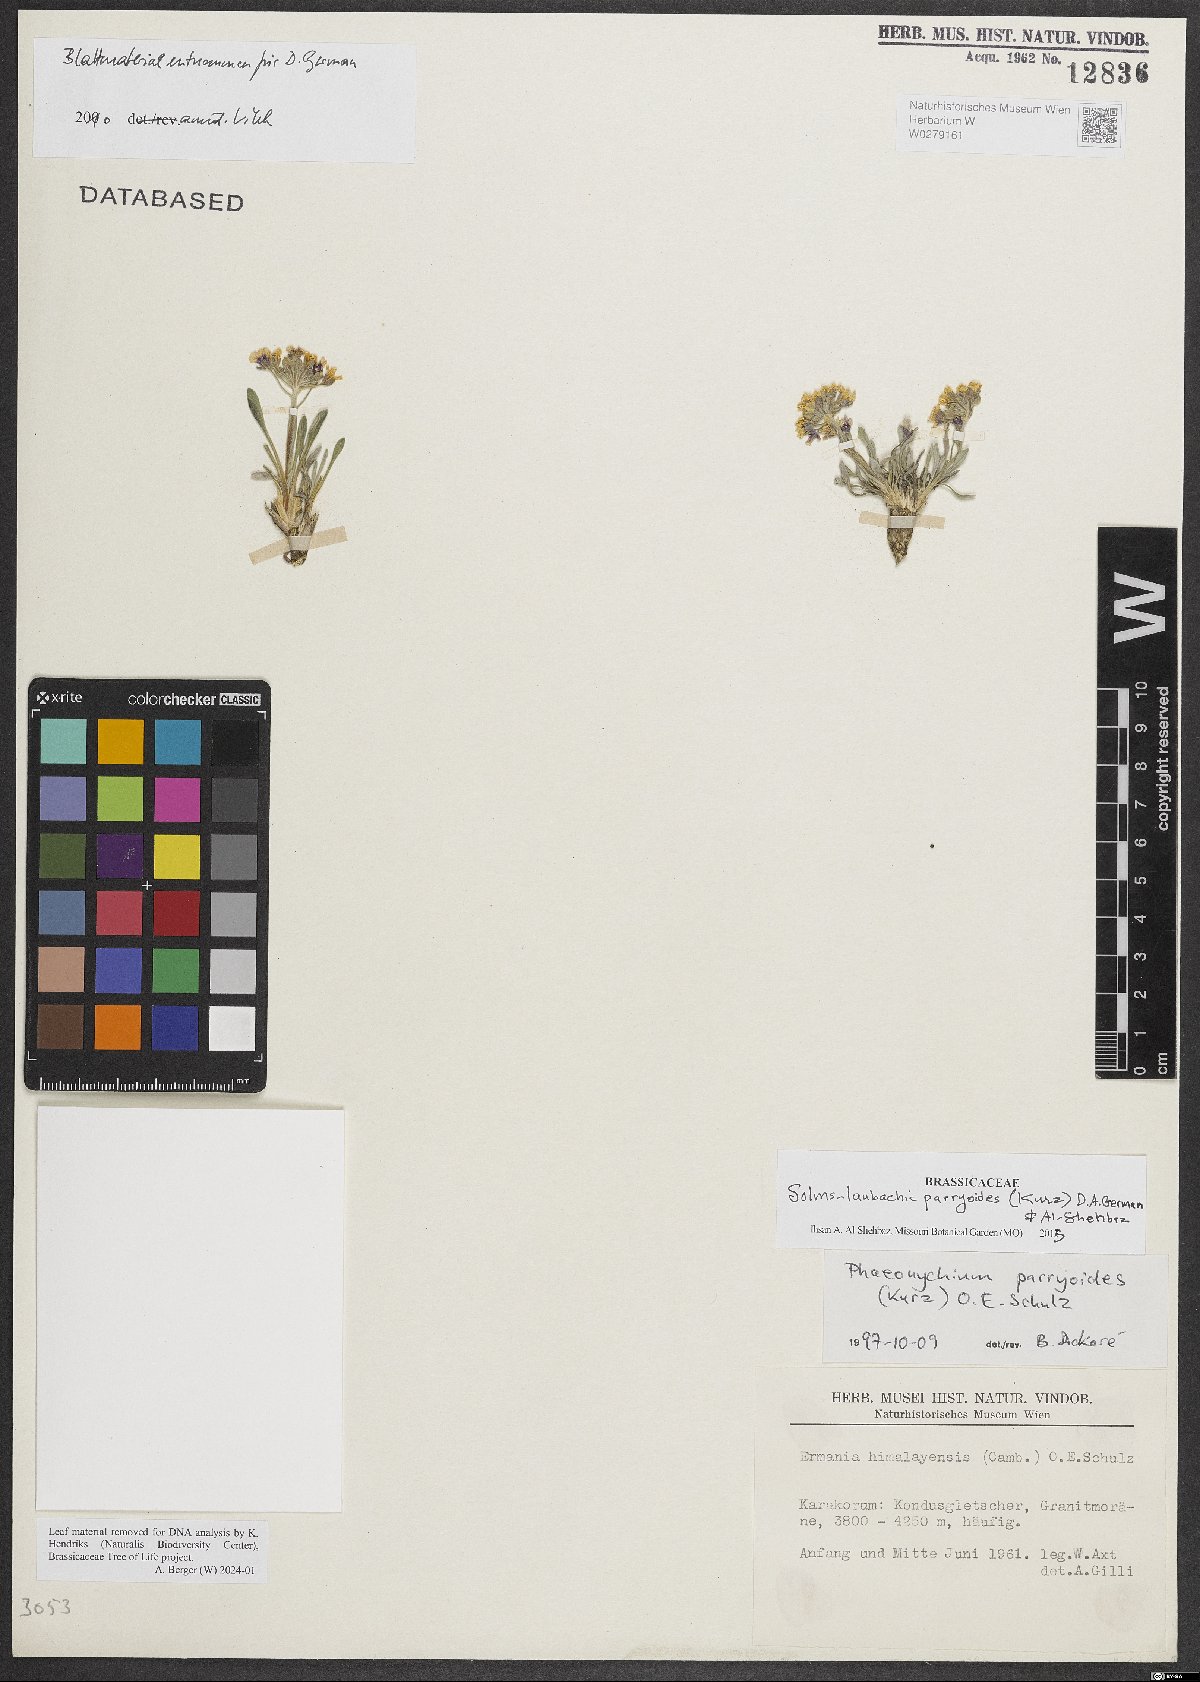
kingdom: Plantae
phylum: Tracheophyta
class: Magnoliopsida
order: Brassicales
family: Brassicaceae
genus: Solms-laubachia
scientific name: Solms-laubachia parryoides
